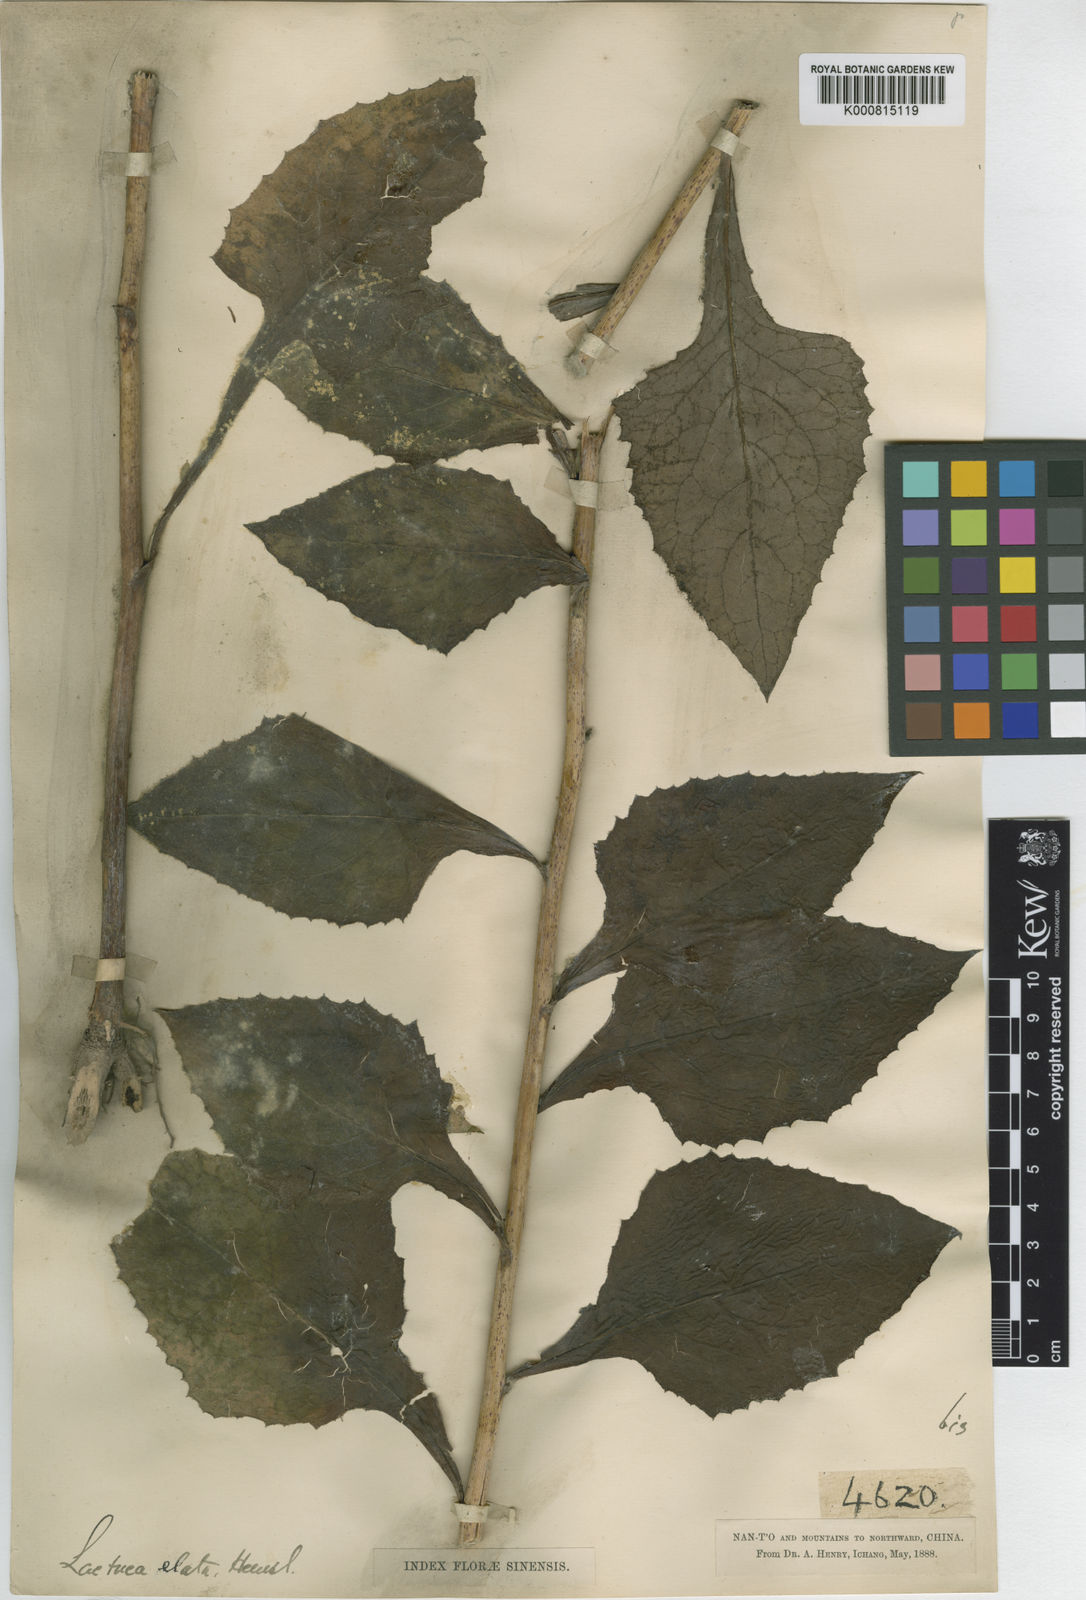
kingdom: Plantae
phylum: Tracheophyta
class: Magnoliopsida
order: Asterales
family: Asteraceae
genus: Lactuca
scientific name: Lactuca raddeana
